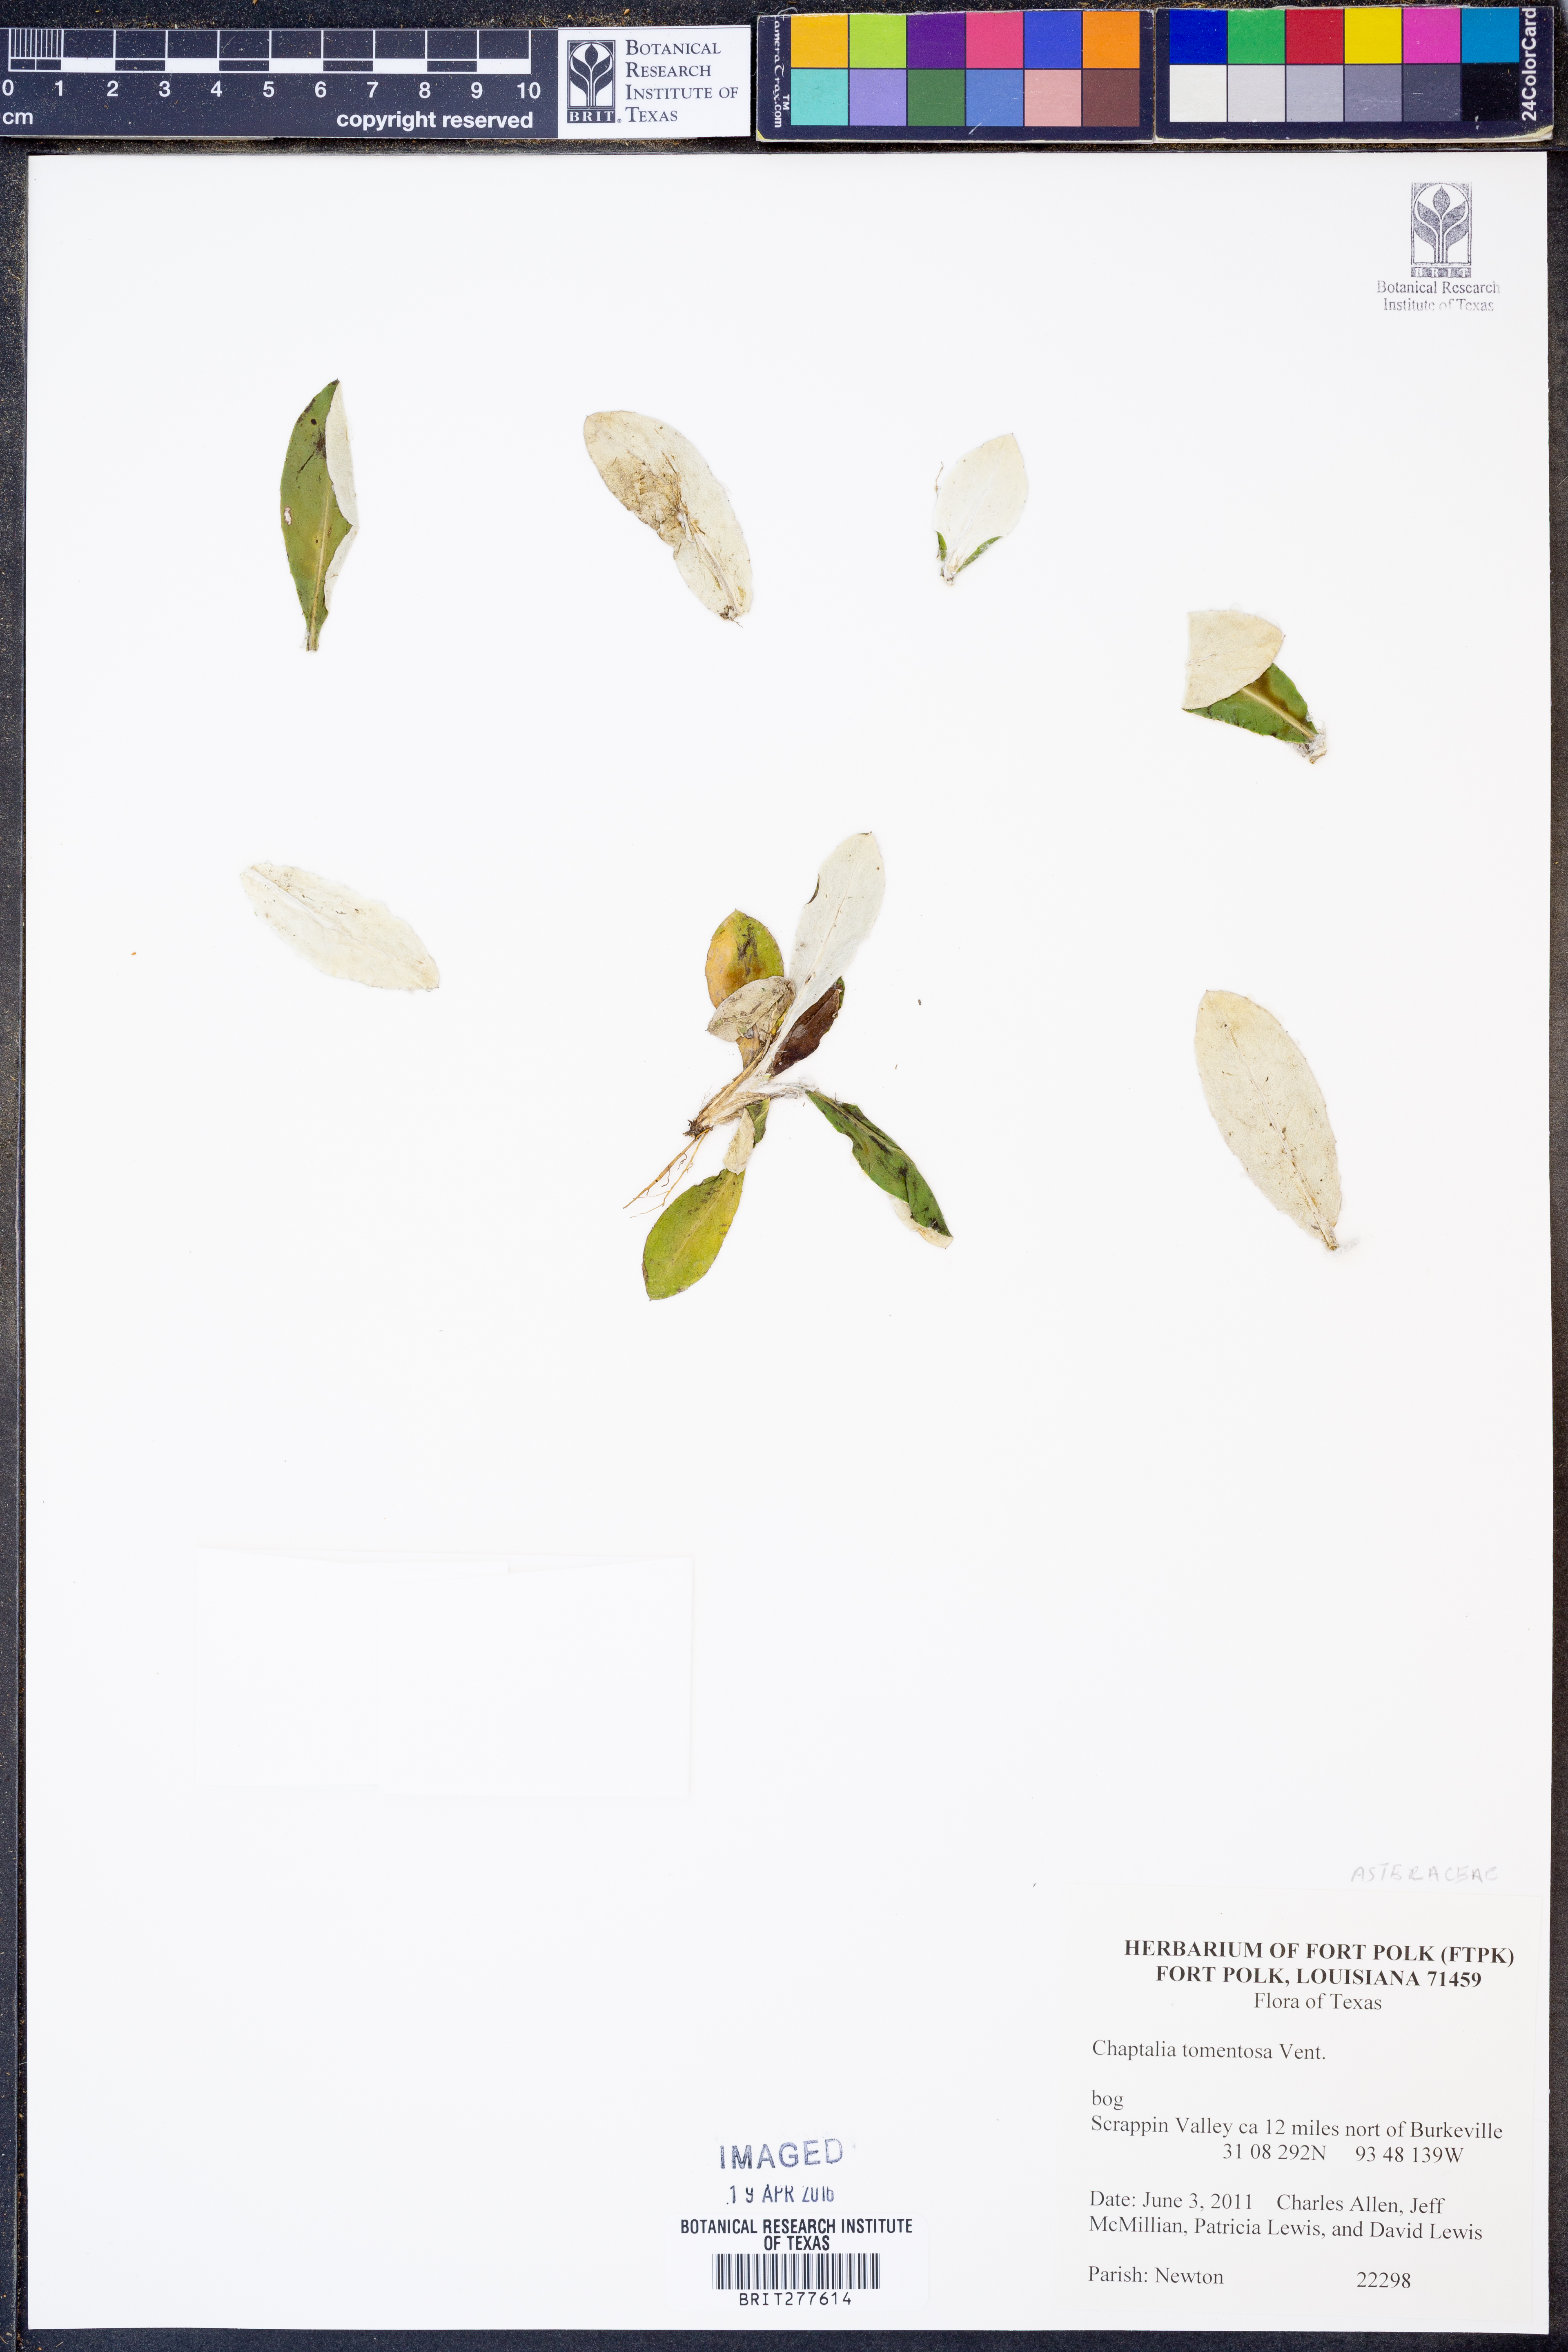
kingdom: Plantae
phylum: Tracheophyta
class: Magnoliopsida
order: Asterales
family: Asteraceae
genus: Chaptalia
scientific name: Chaptalia tomentosa
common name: Woolly sunbonnet
